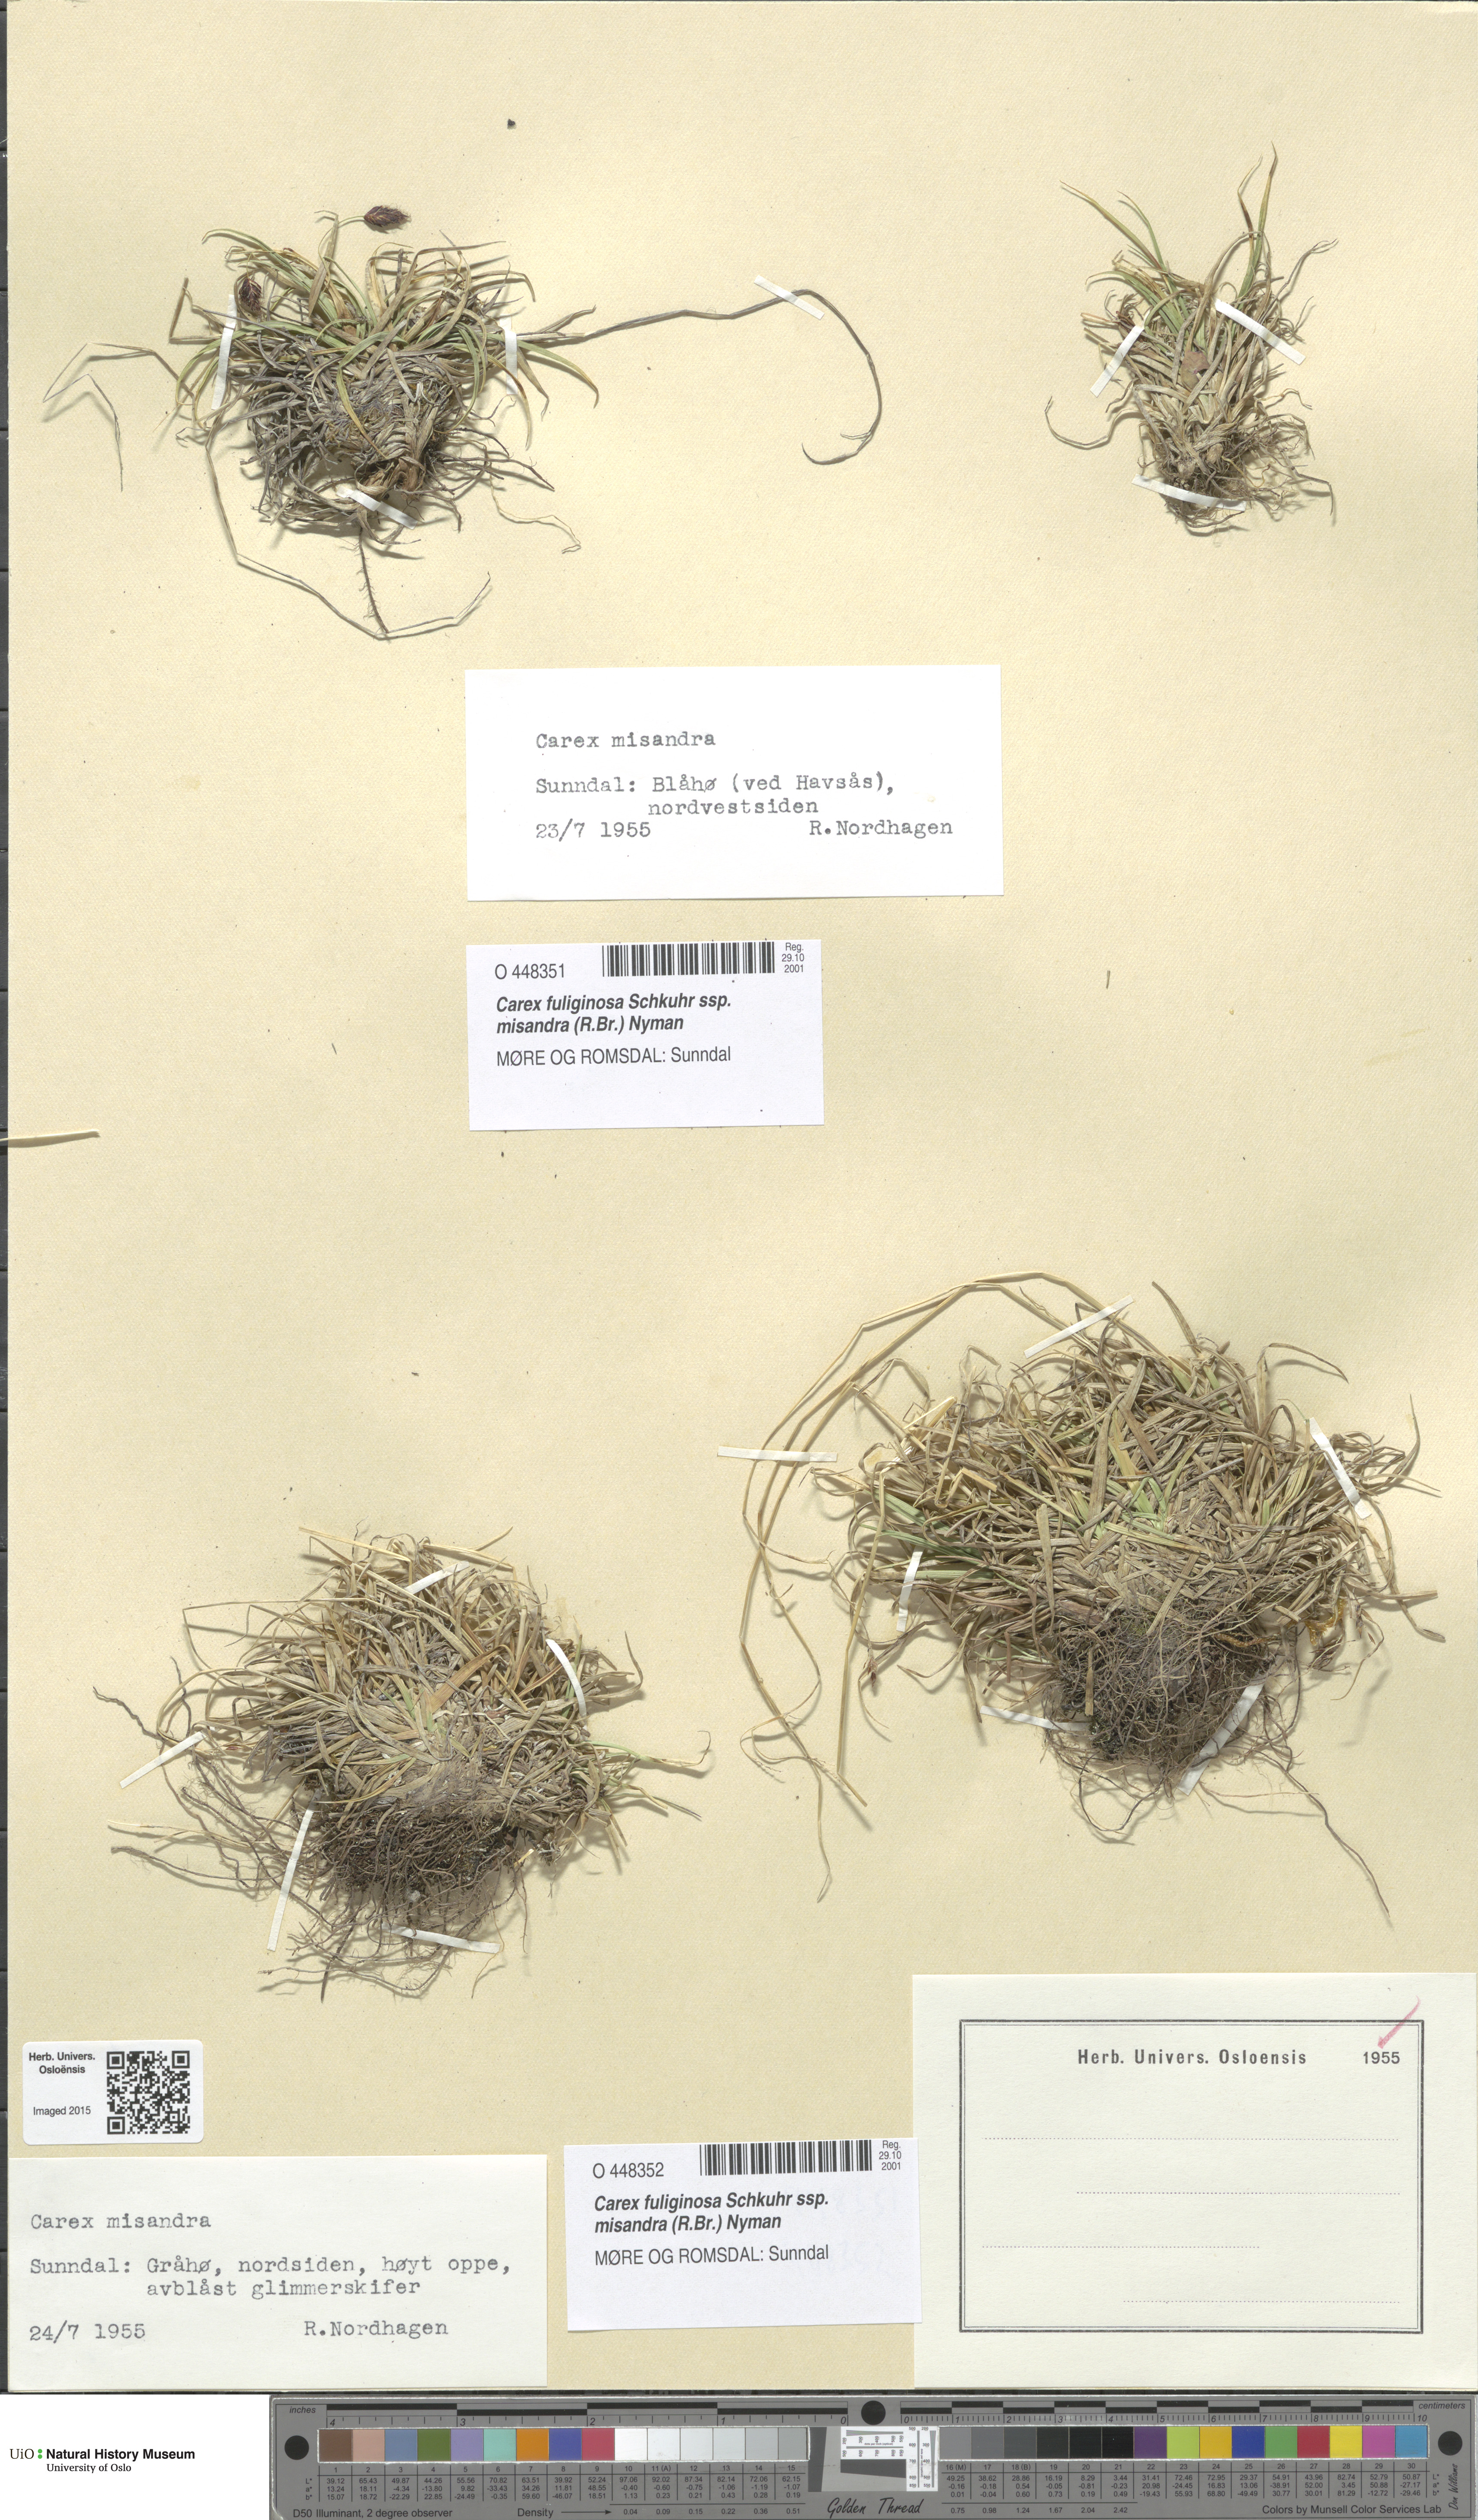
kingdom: Plantae
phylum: Tracheophyta
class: Liliopsida
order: Poales
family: Cyperaceae
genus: Carex
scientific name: Carex fuliginosa
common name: Few-flowered sedge
